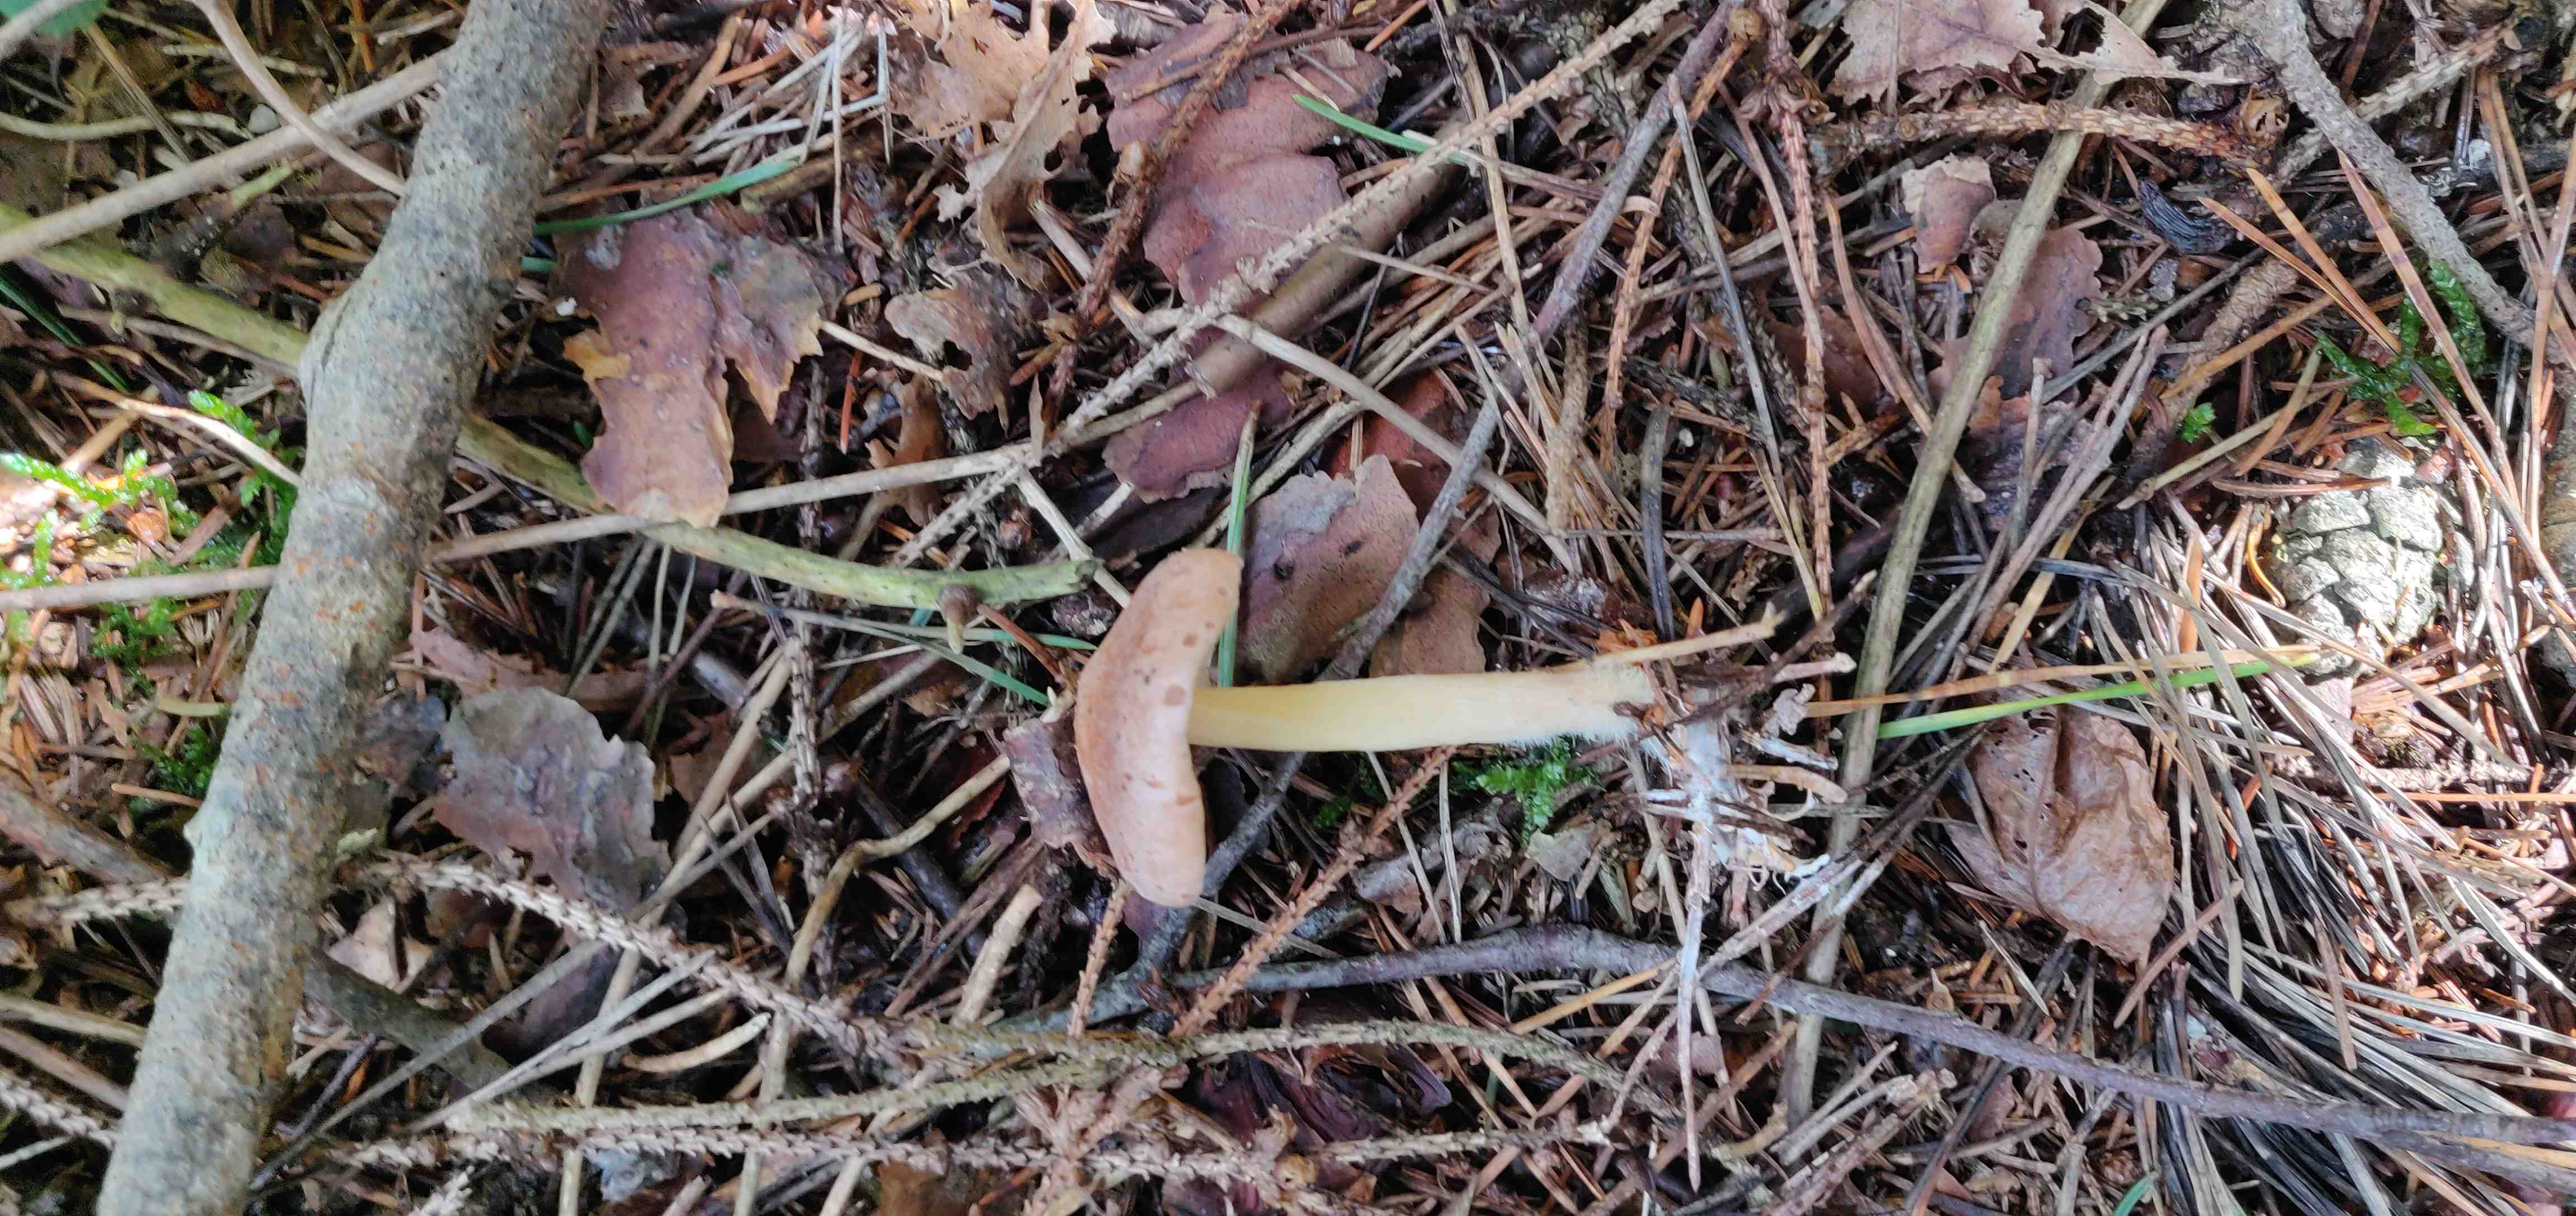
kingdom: Fungi
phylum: Basidiomycota
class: Agaricomycetes
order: Agaricales
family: Omphalotaceae
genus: Collybiopsis
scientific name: Collybiopsis peronata
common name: bestøvlet fladhat
